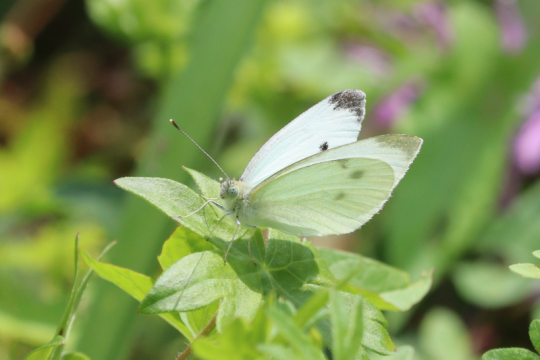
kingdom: Animalia
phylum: Arthropoda
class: Insecta
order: Lepidoptera
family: Pieridae
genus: Pieris
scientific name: Pieris rapae
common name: Cabbage White
